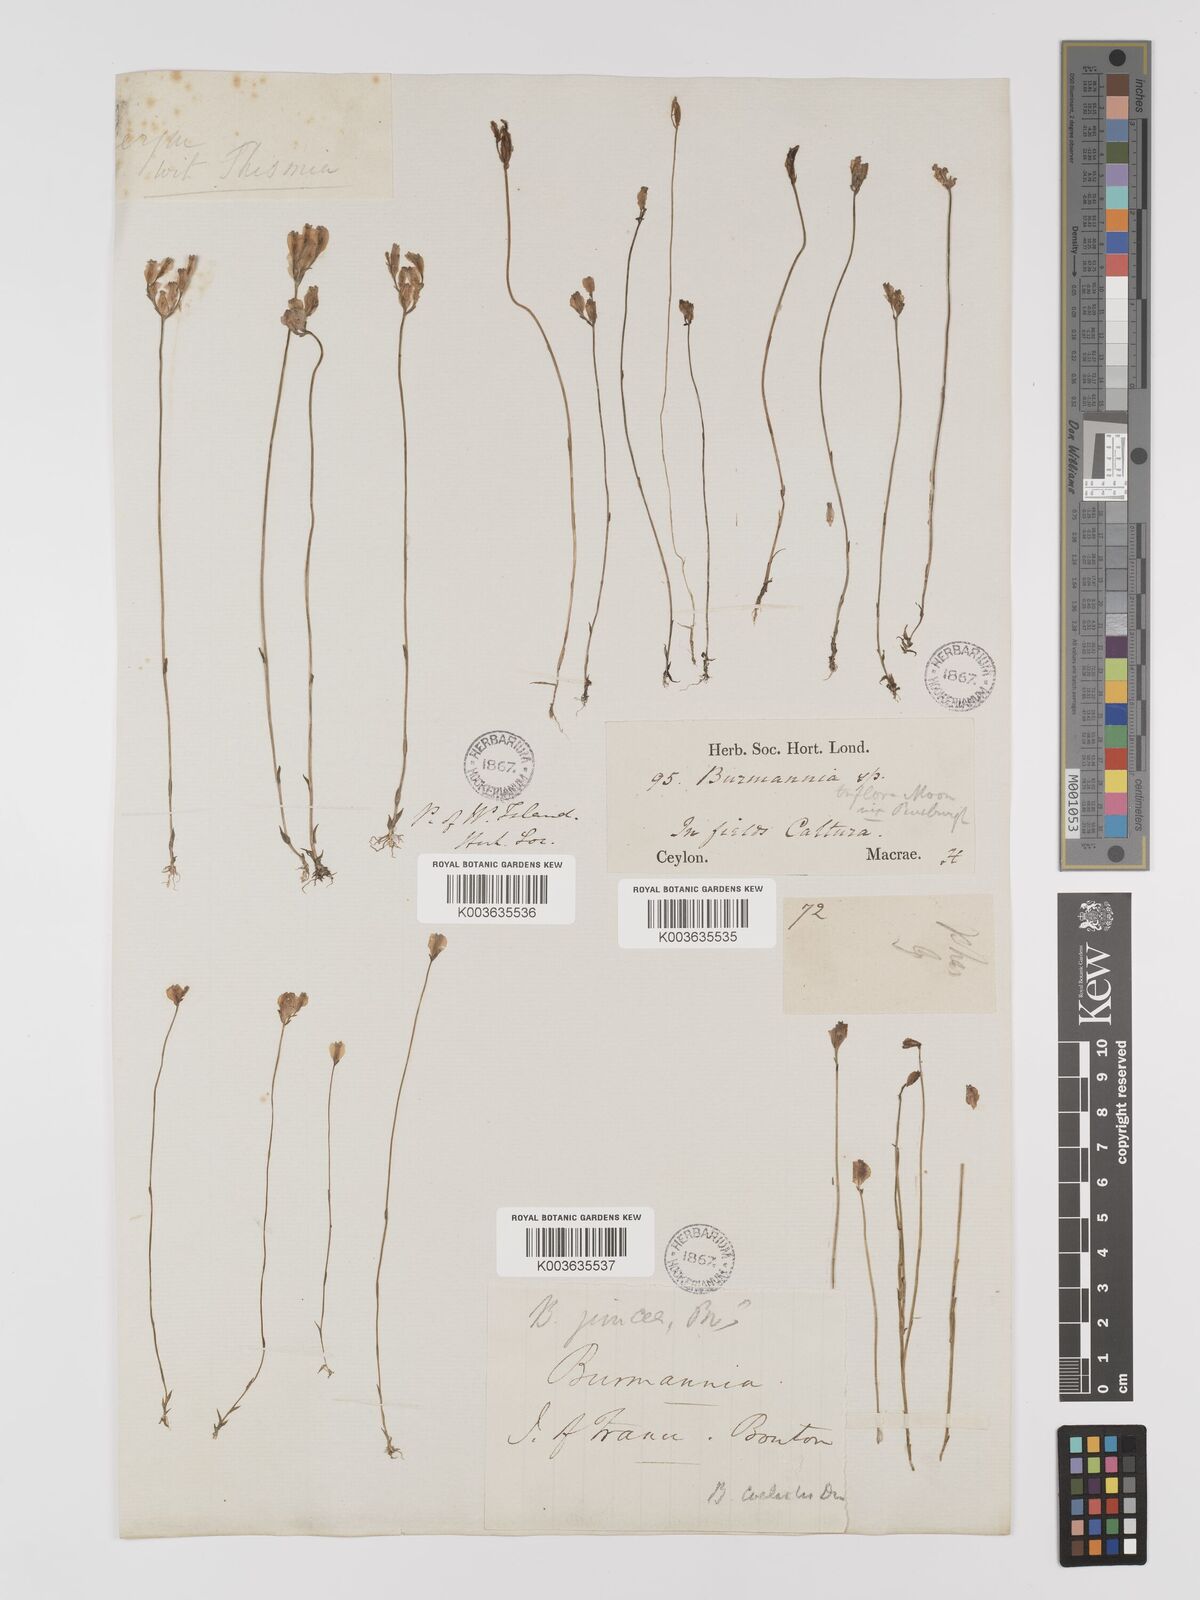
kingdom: Plantae
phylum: Tracheophyta
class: Liliopsida
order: Dioscoreales
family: Burmanniaceae
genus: Burmannia
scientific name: Burmannia coelestis
